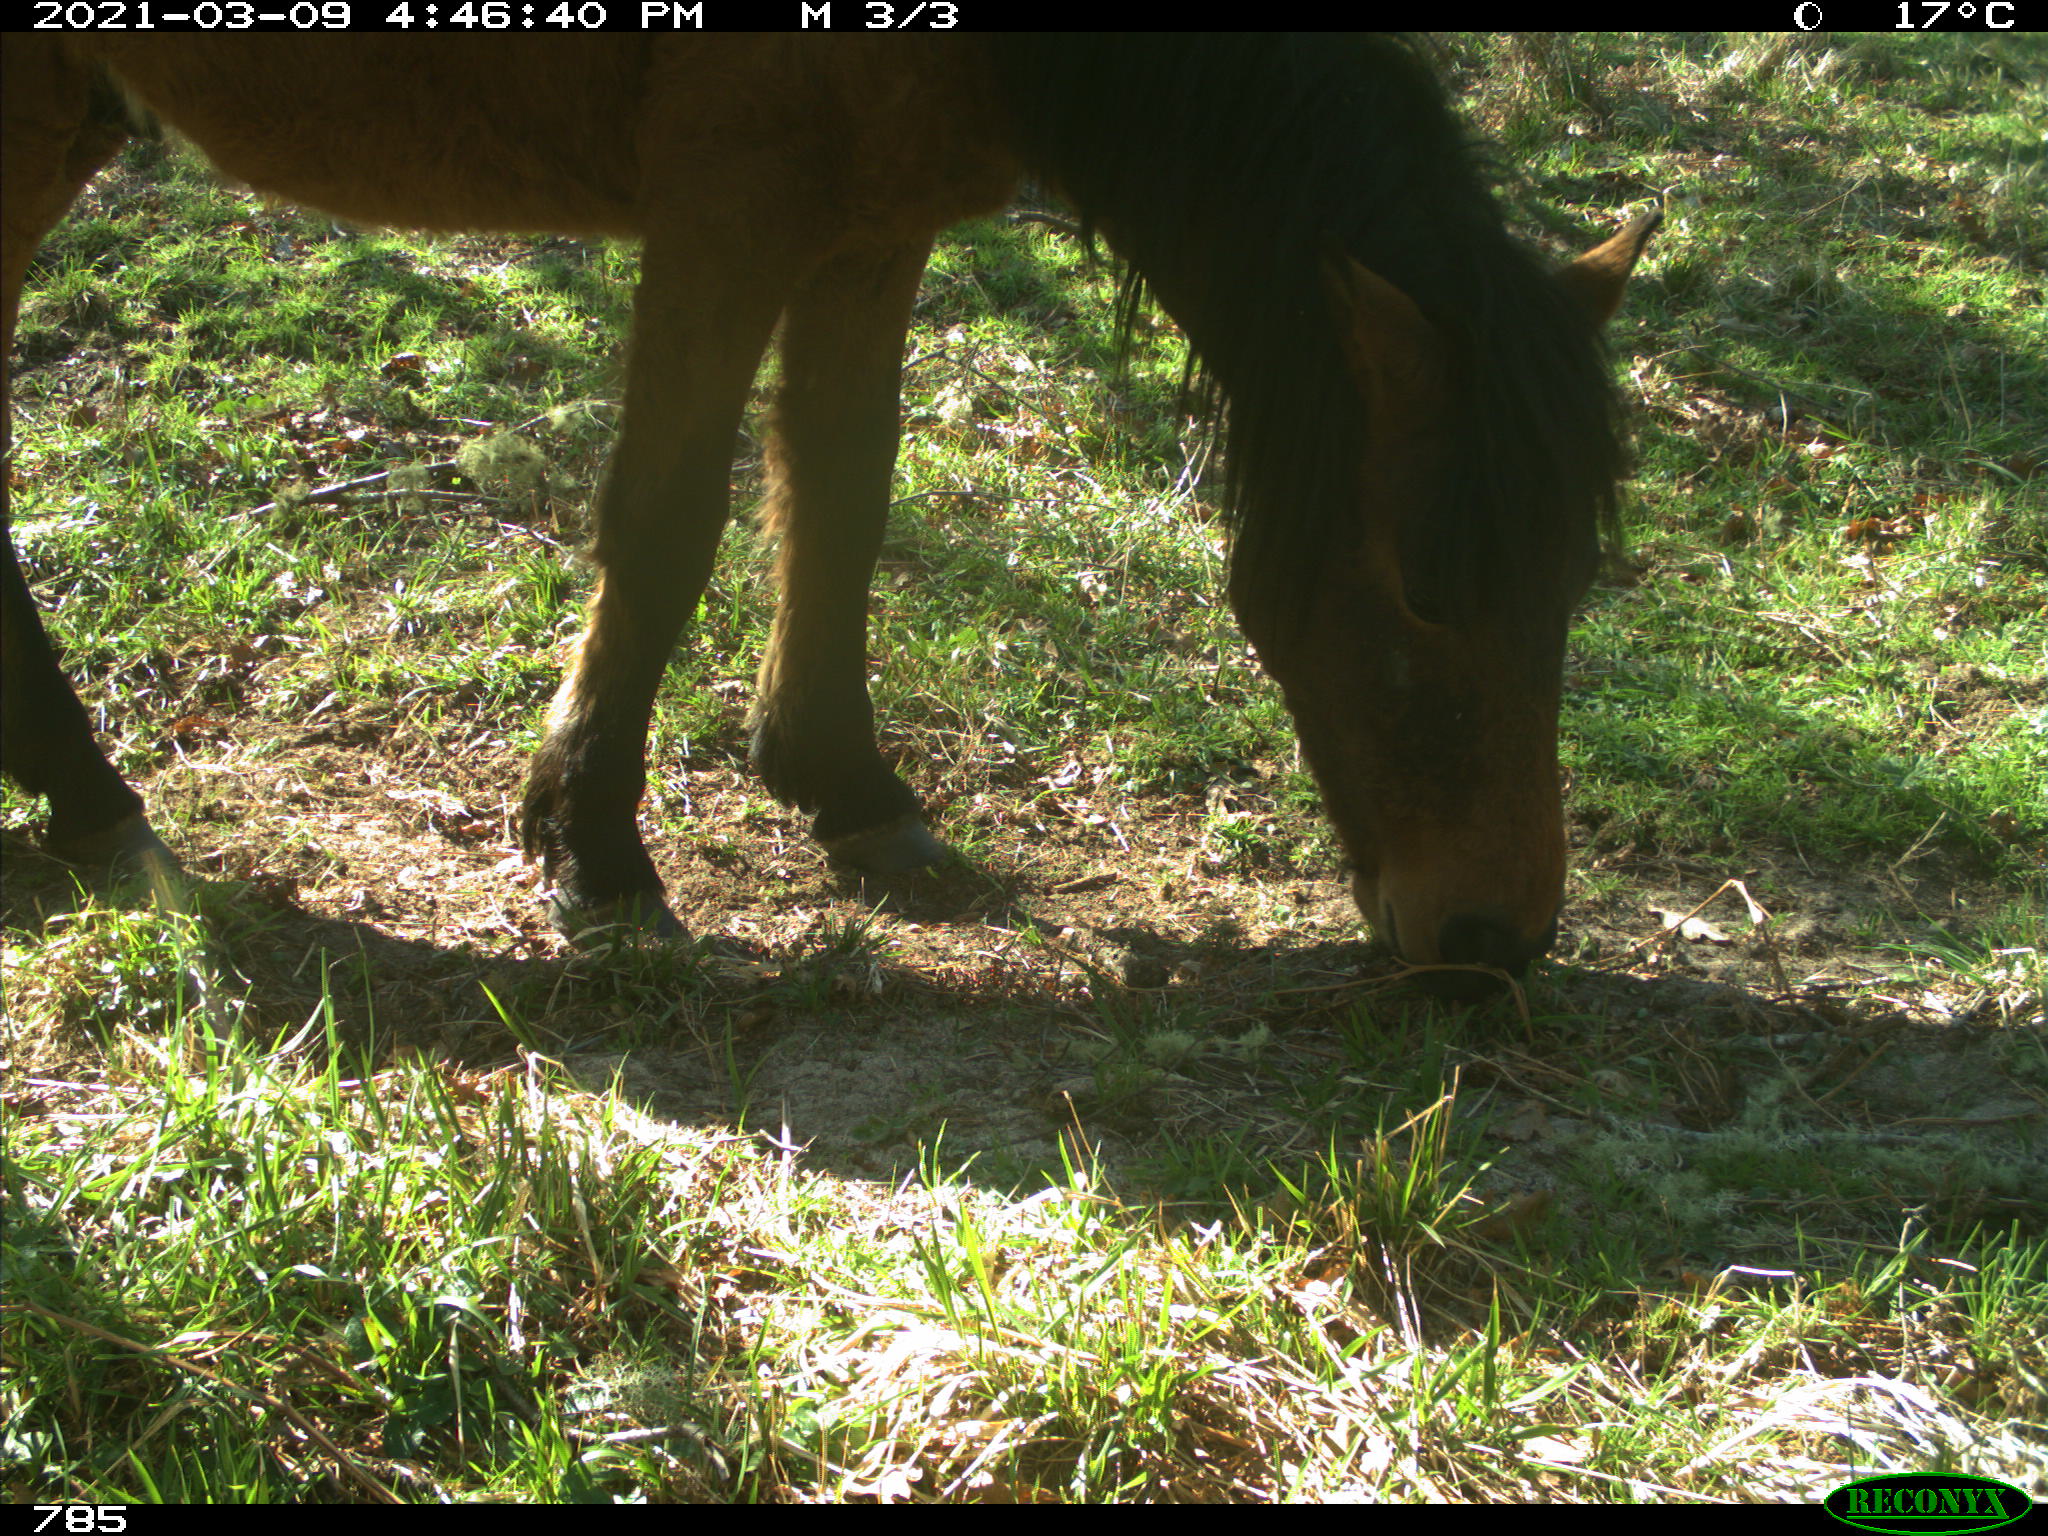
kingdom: Animalia
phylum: Chordata
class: Mammalia
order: Perissodactyla
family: Equidae
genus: Equus
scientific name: Equus caballus
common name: Horse
